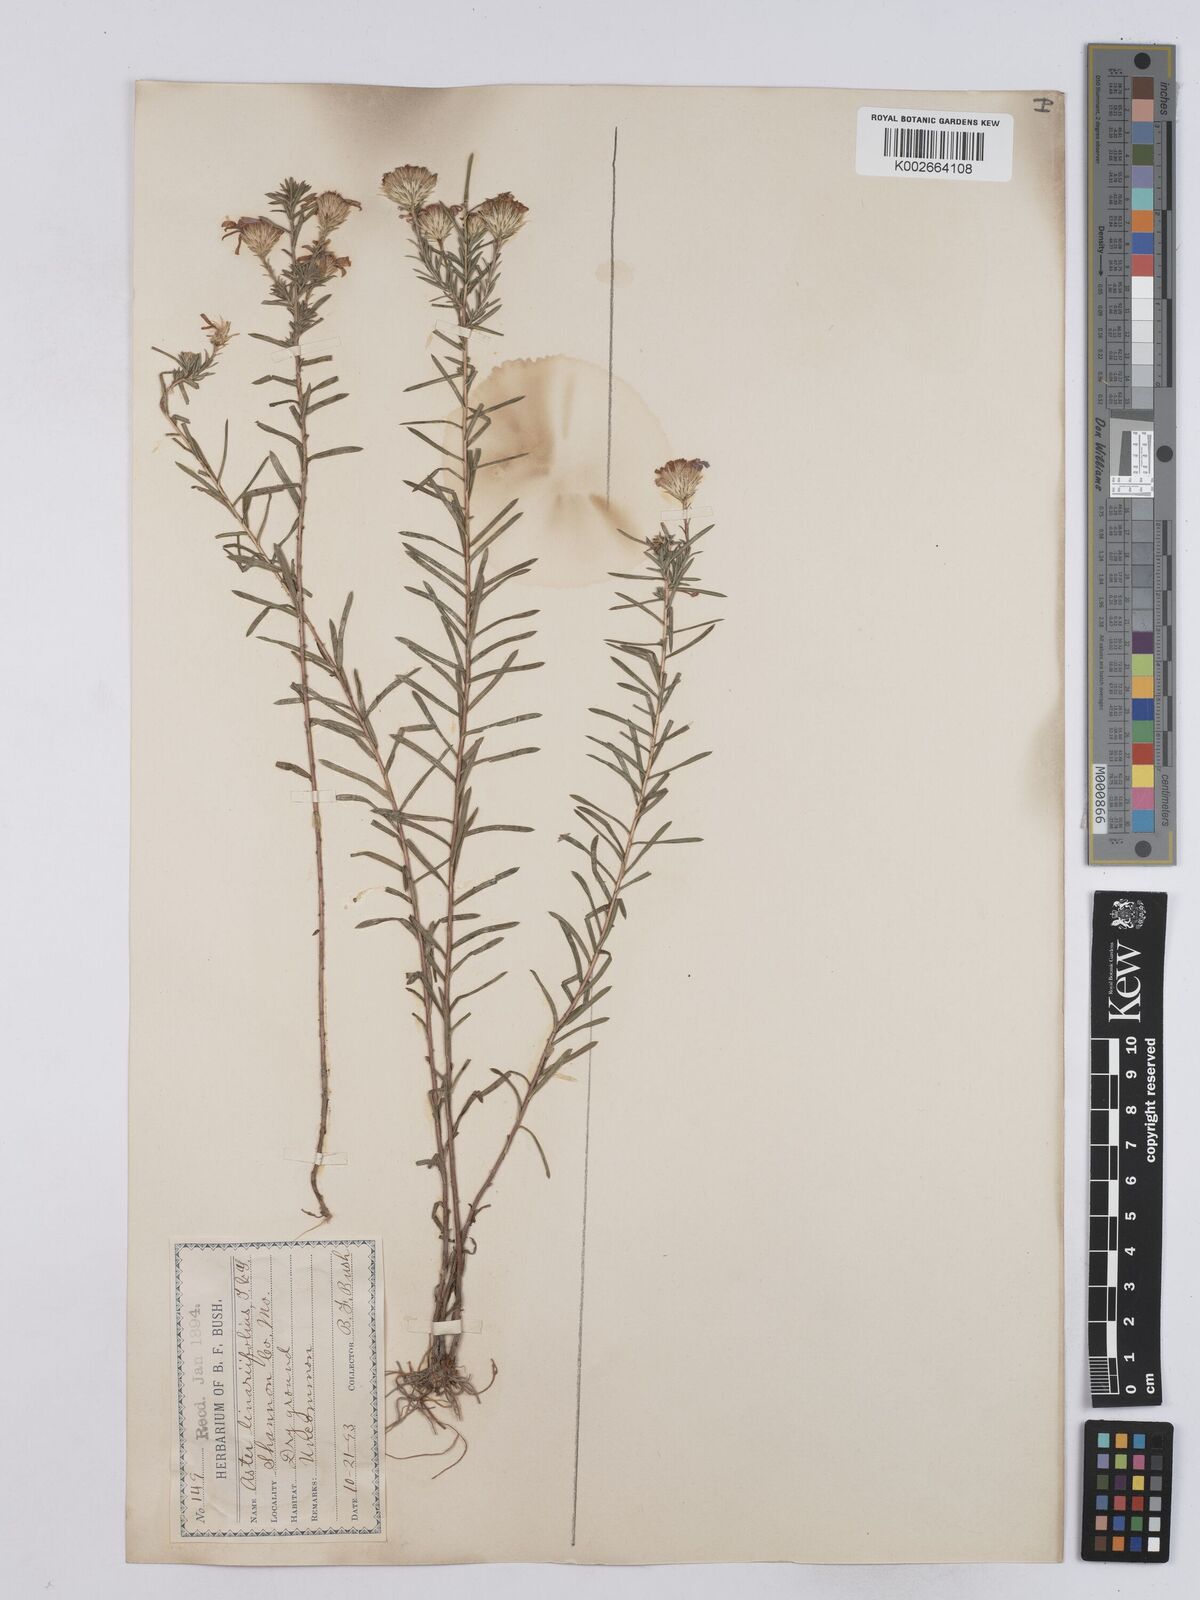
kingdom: Plantae
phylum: Tracheophyta
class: Magnoliopsida
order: Asterales
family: Asteraceae
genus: Ionactis
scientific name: Ionactis linariifolia
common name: Flax-leaf aster
